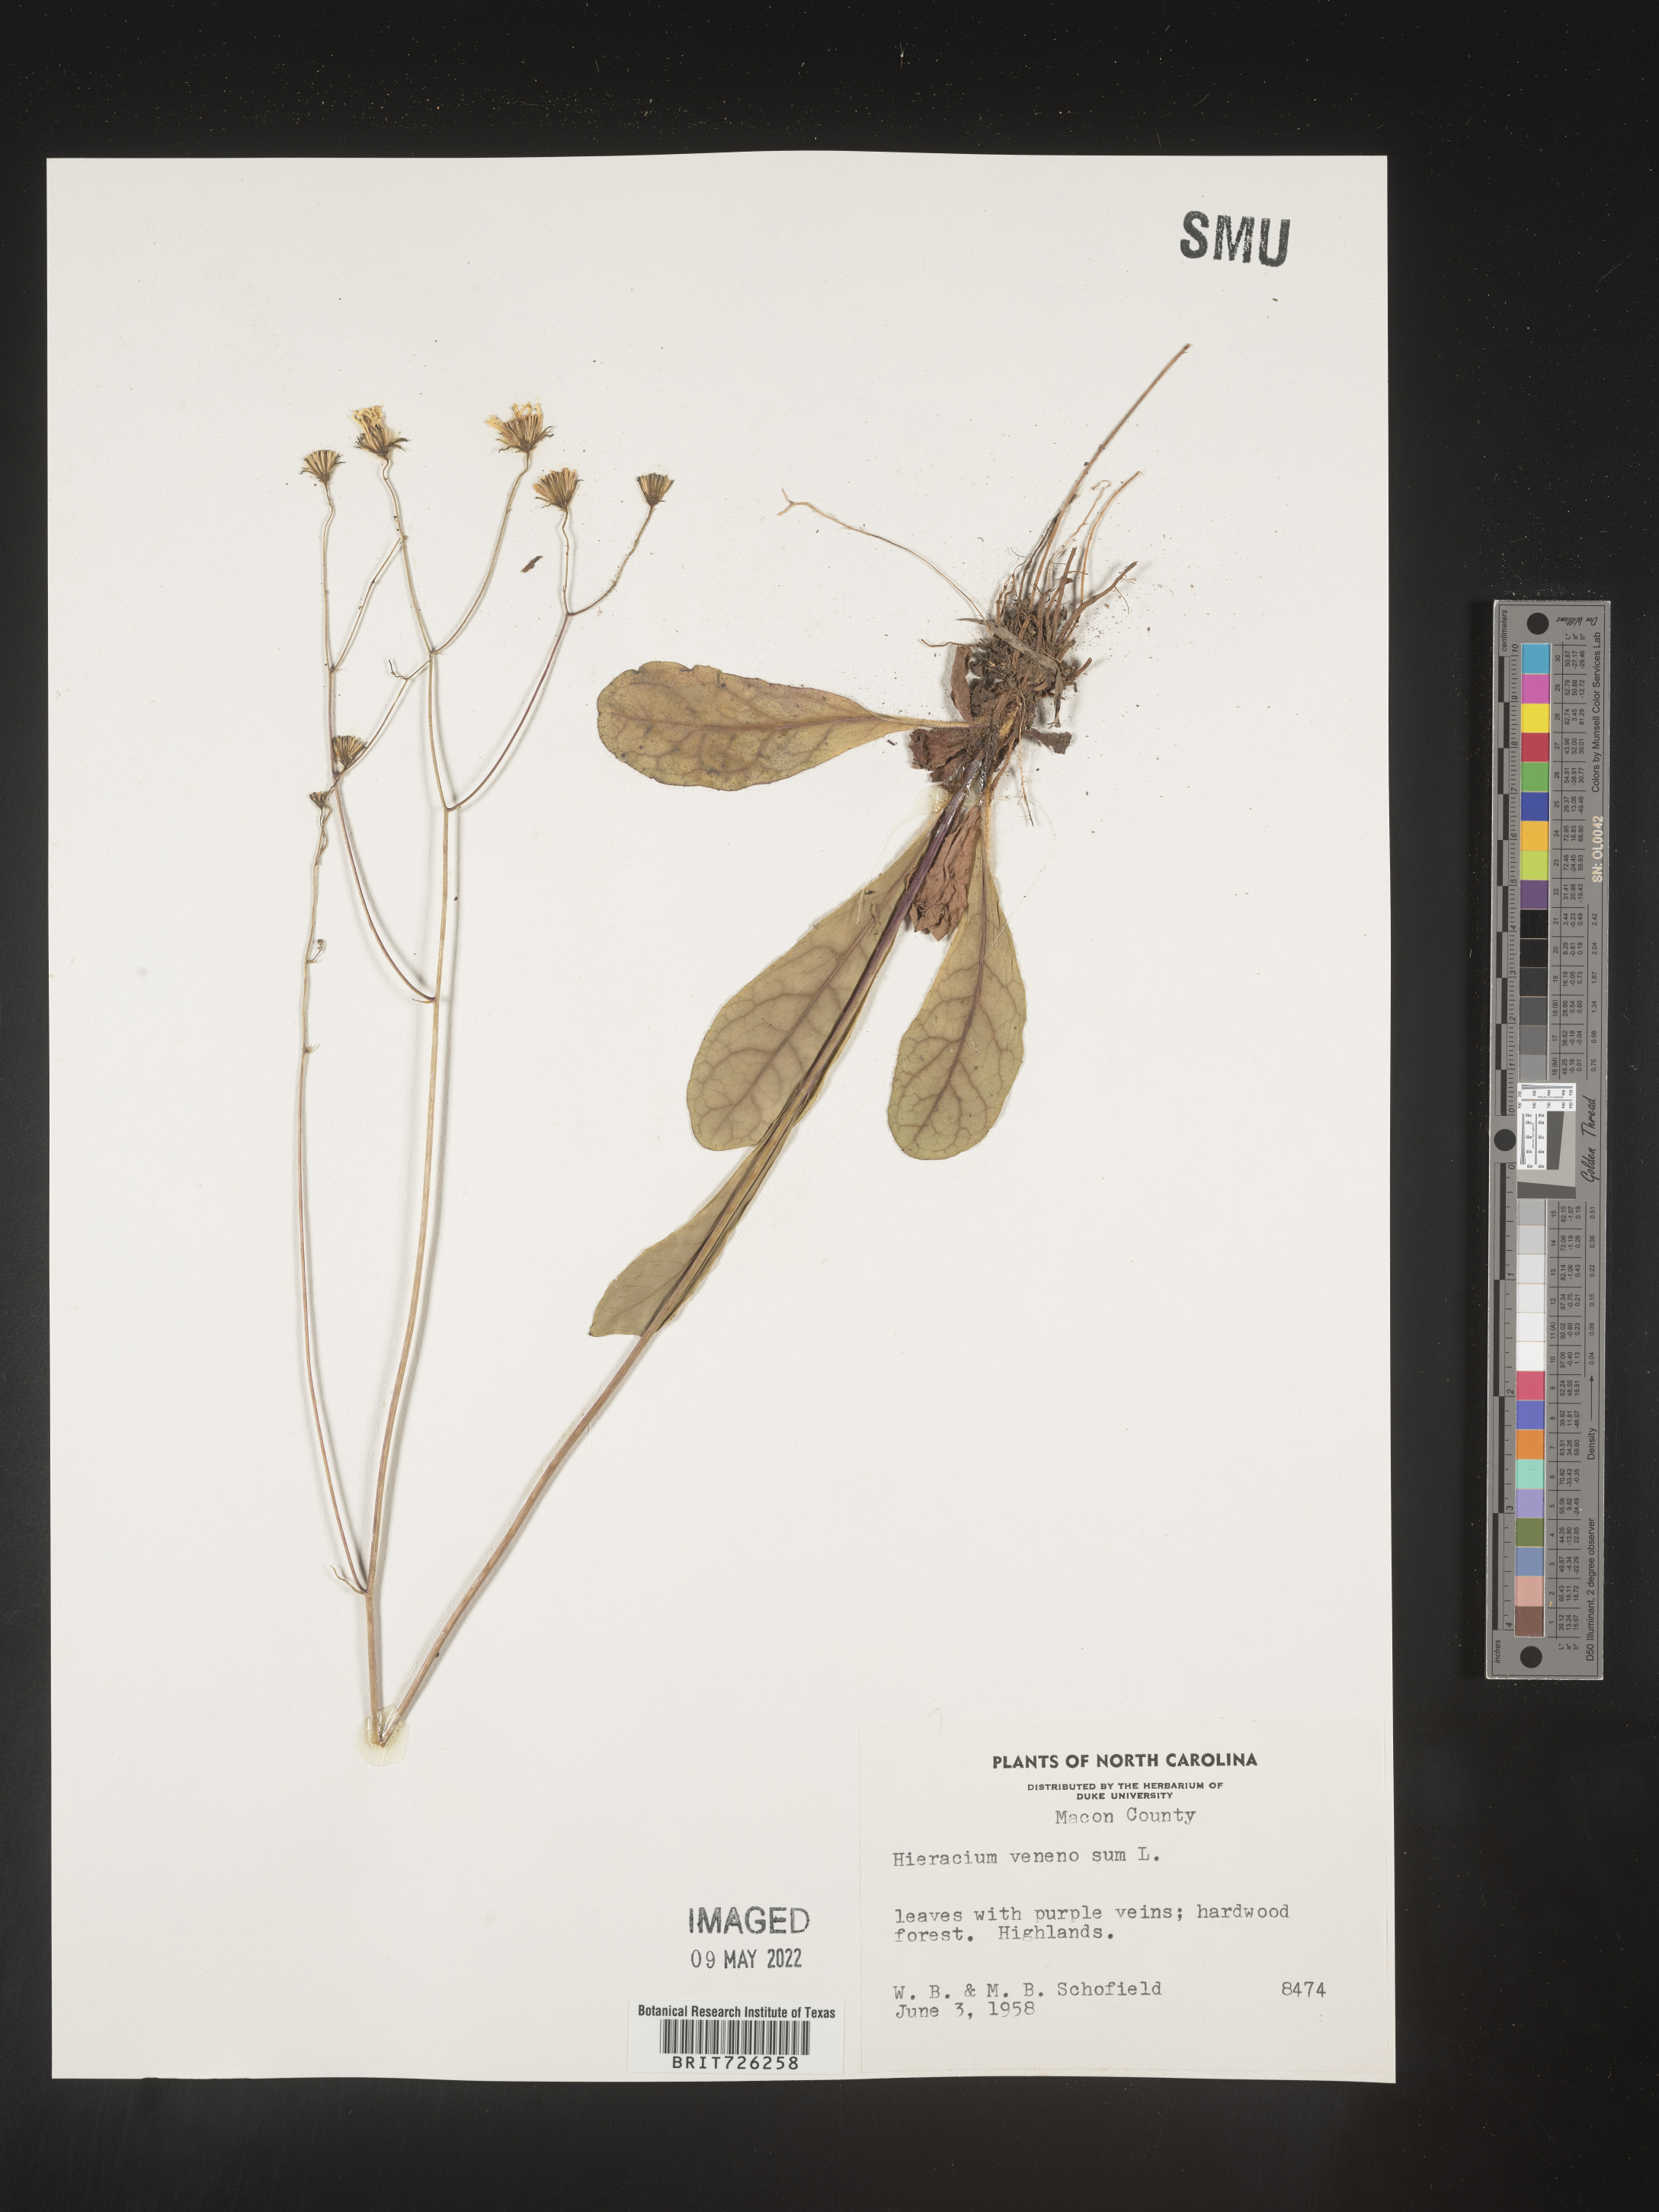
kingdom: Plantae
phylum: Tracheophyta
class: Magnoliopsida
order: Asterales
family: Asteraceae
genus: Hieracium
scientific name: Hieracium
